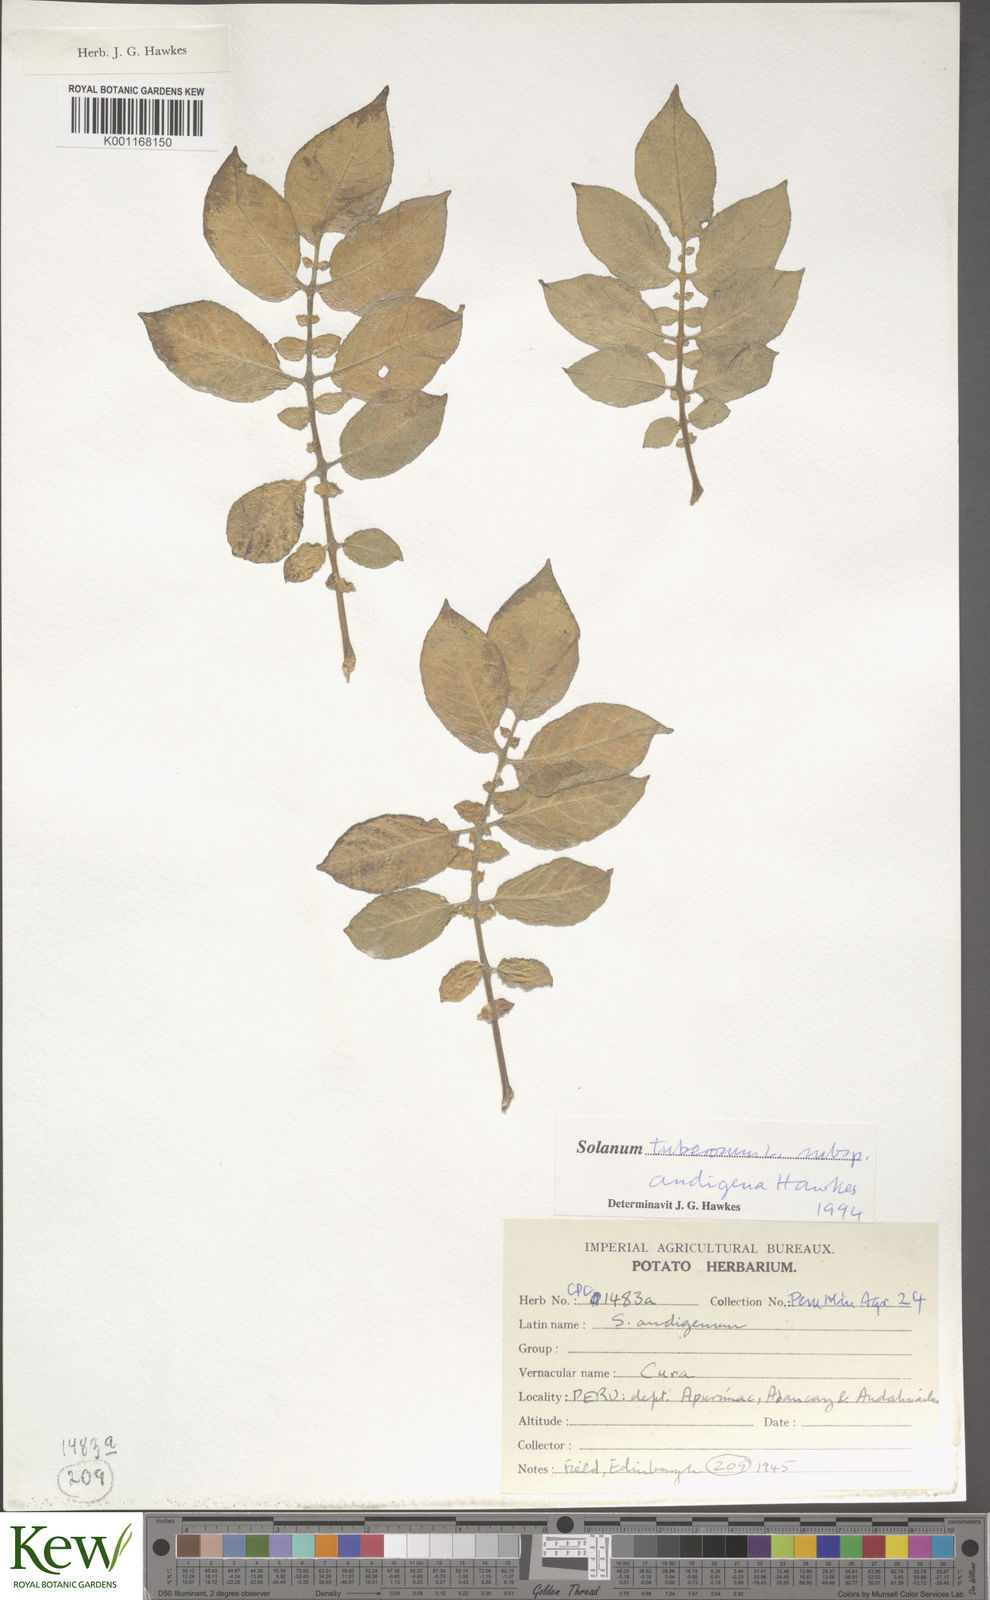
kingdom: Plantae
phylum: Tracheophyta
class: Magnoliopsida
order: Solanales
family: Solanaceae
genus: Solanum
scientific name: Solanum tuberosum
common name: Potato
